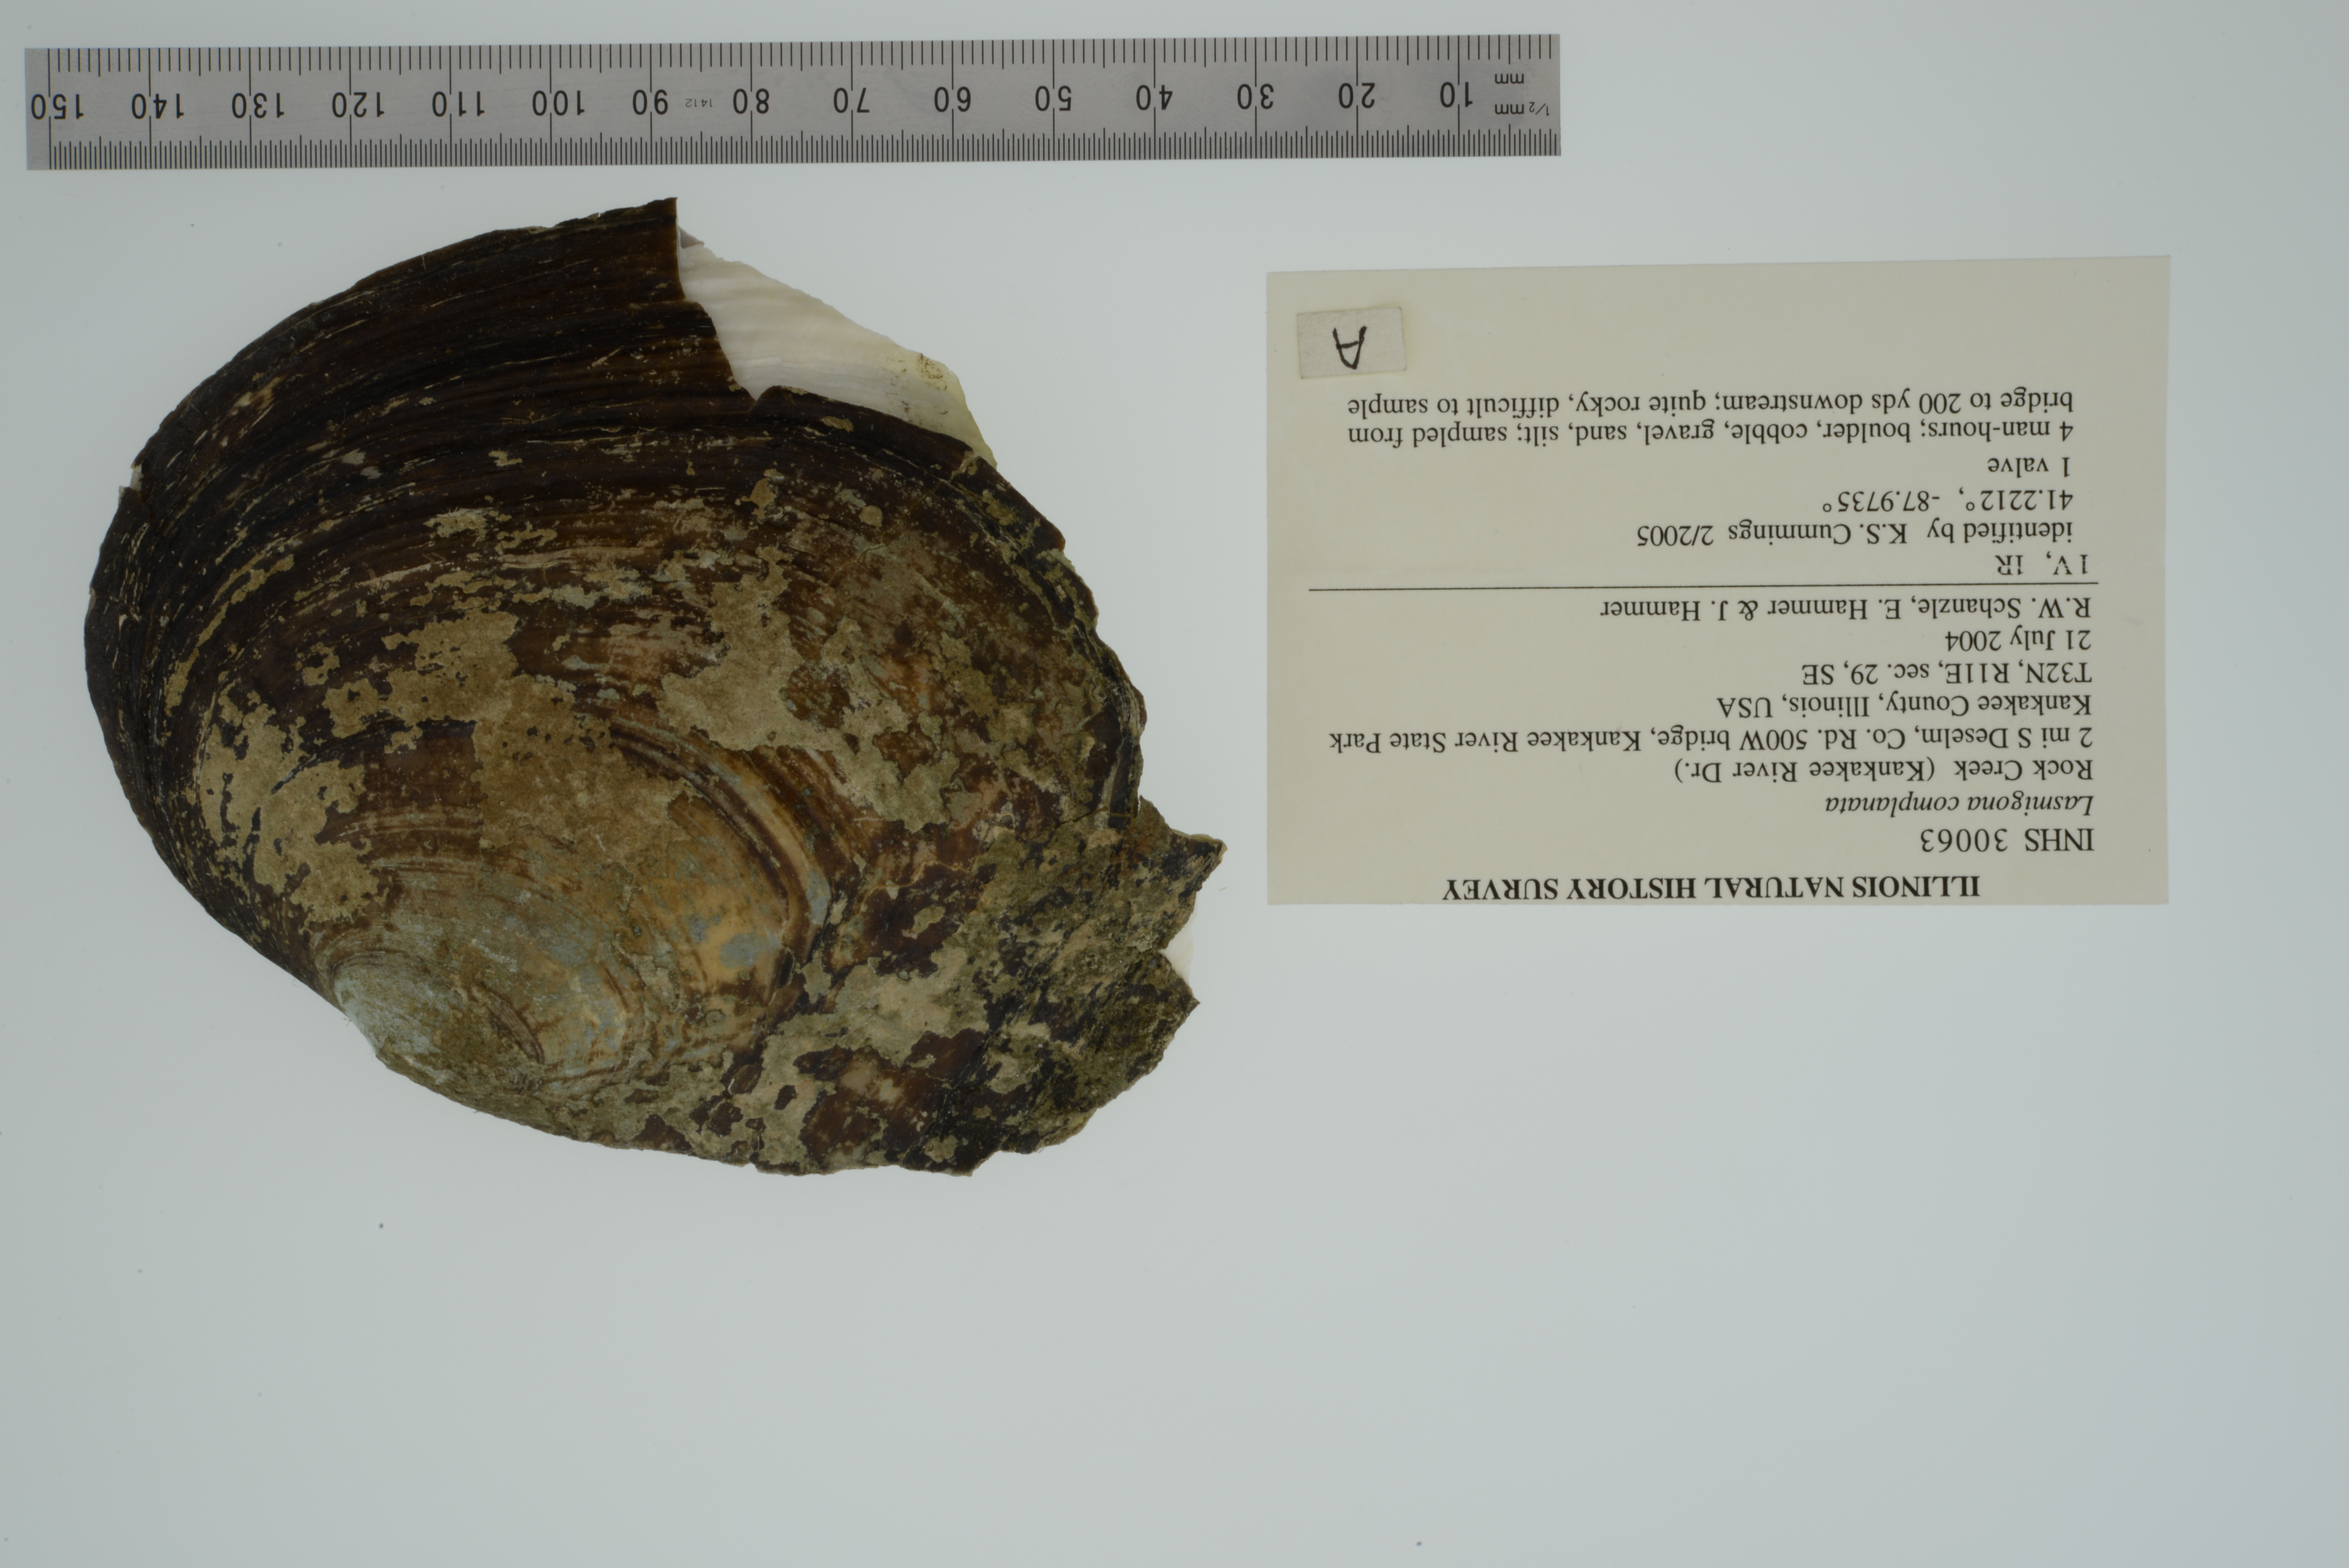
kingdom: Animalia
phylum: Mollusca
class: Bivalvia
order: Unionida
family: Unionidae
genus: Lasmigona
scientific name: Lasmigona complanata
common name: White heelsplitter
